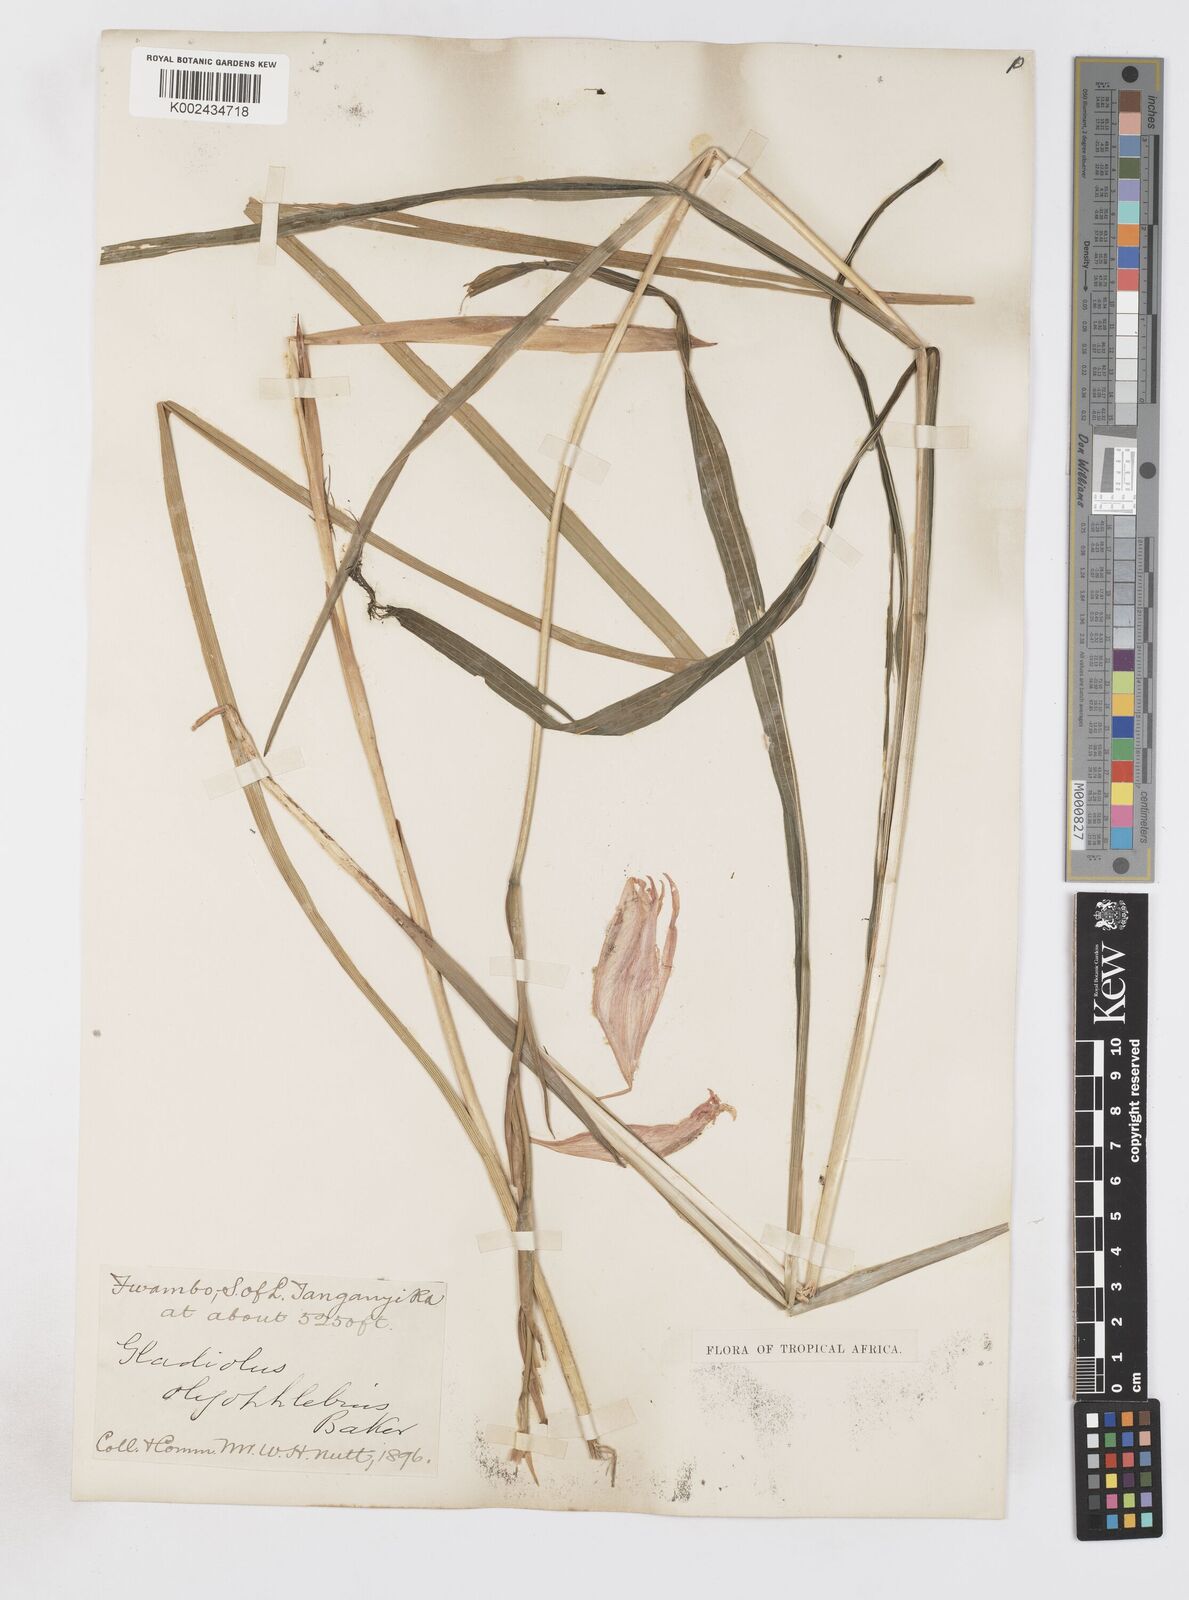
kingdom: Plantae
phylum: Tracheophyta
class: Liliopsida
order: Asparagales
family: Iridaceae
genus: Gladiolus
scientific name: Gladiolus oligophlebius
